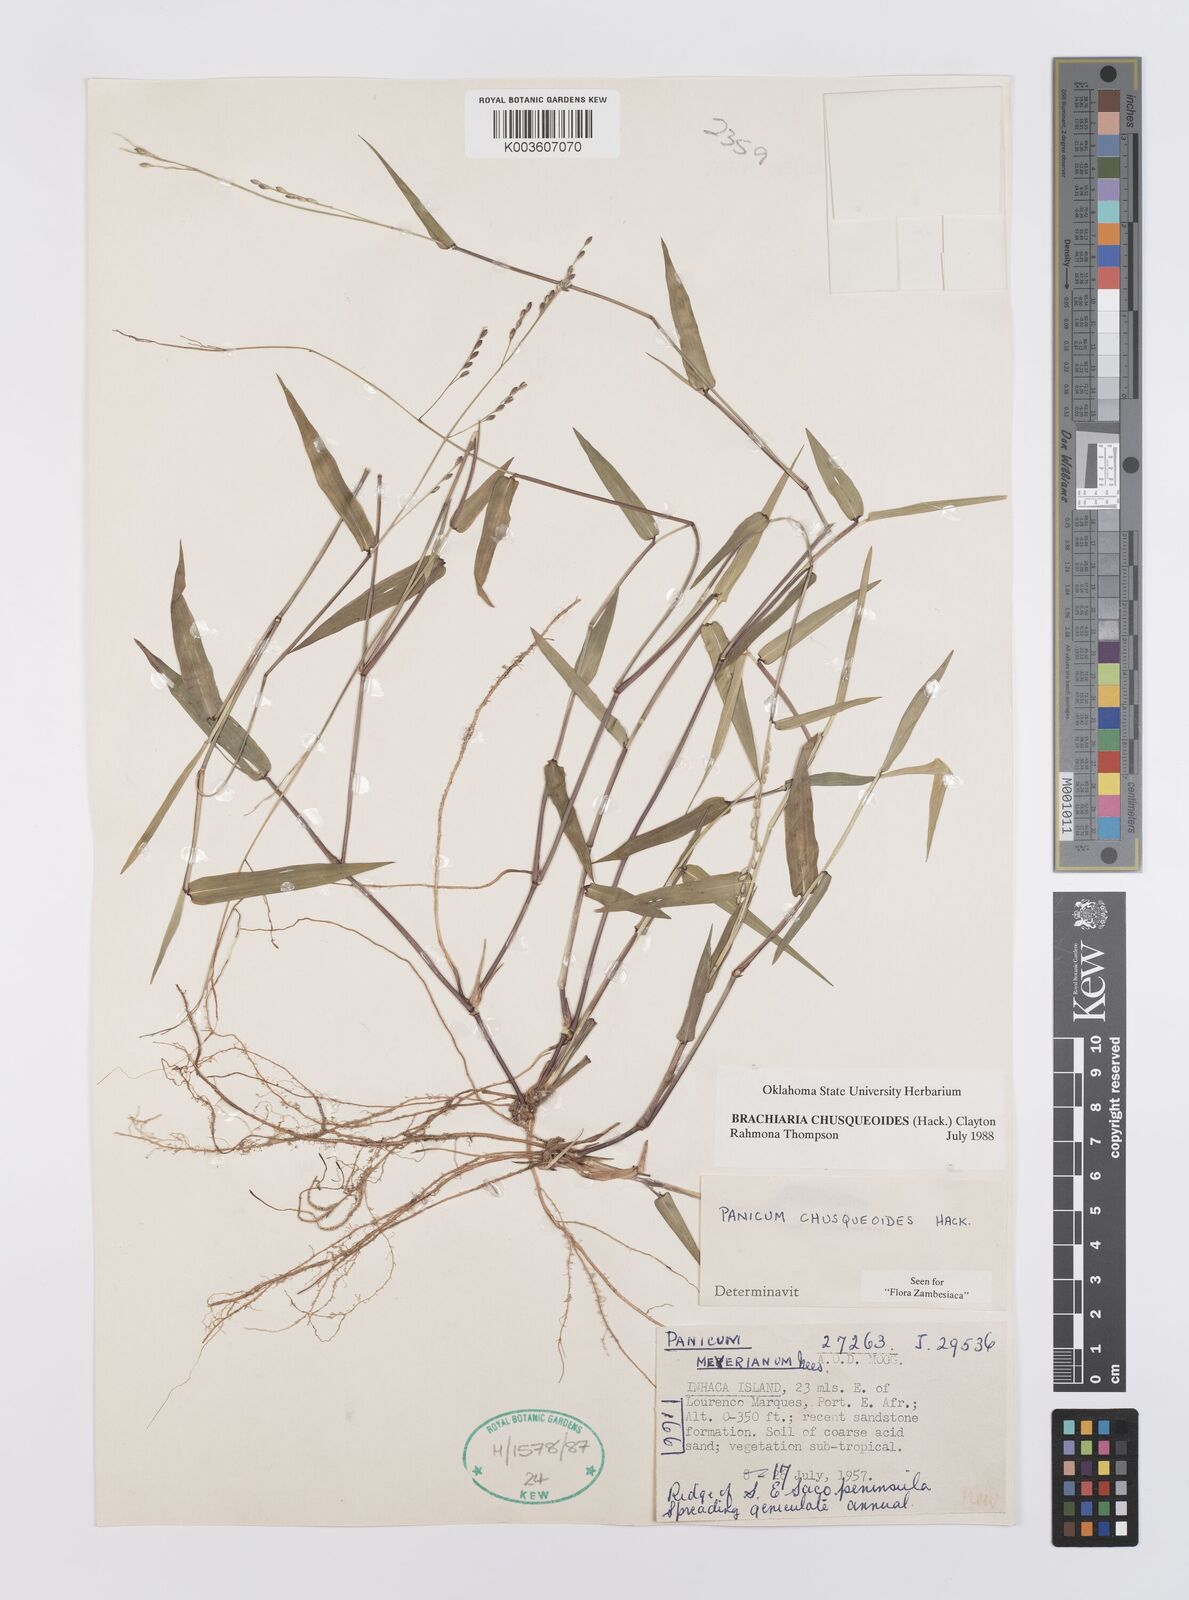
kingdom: Plantae
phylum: Tracheophyta
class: Liliopsida
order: Poales
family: Poaceae
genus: Urochloa
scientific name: Urochloa chusqueoides
